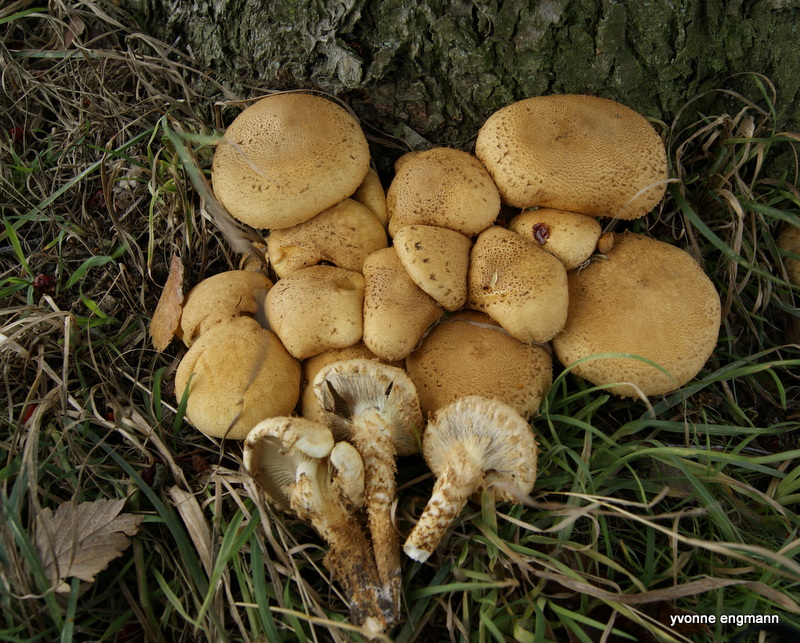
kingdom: Fungi
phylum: Basidiomycota
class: Agaricomycetes
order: Agaricales
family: Strophariaceae
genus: Pholiota
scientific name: Pholiota squarrosa
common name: krumskællet skælhat
